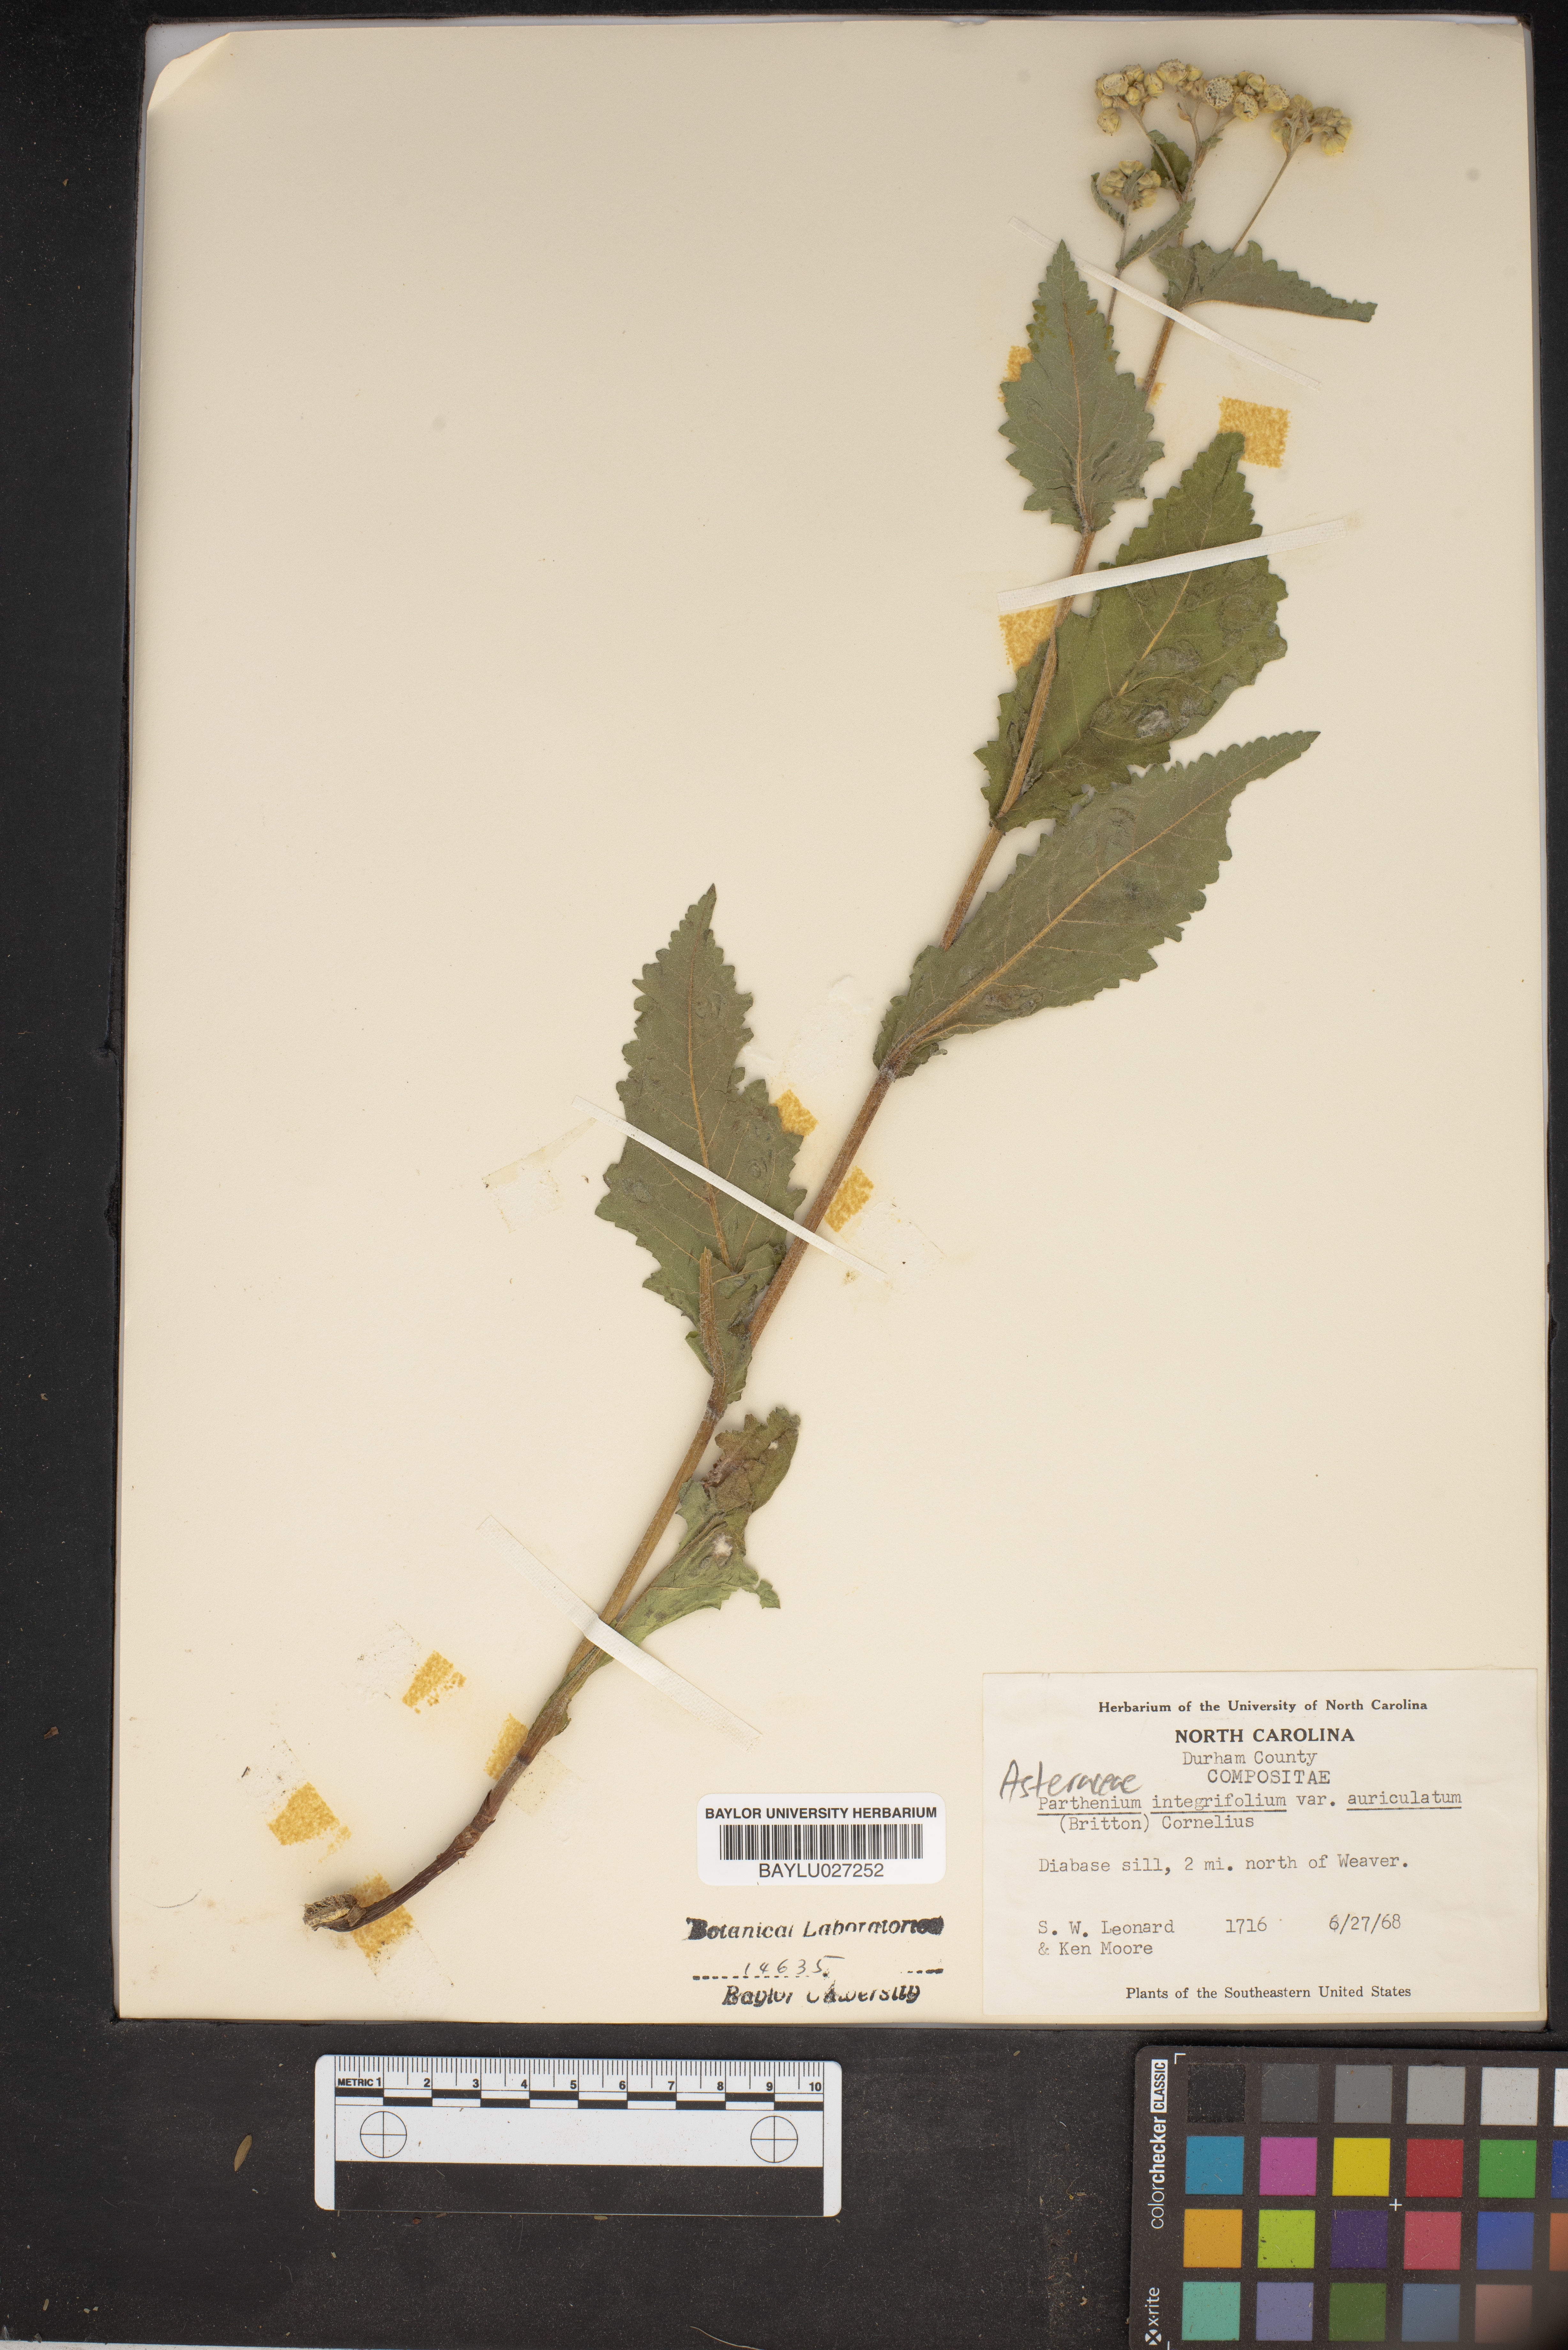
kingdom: Plantae
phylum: Tracheophyta
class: Magnoliopsida
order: Asterales
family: Asteraceae
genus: Parthenium
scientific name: Parthenium integrifolium
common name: American feverfew
